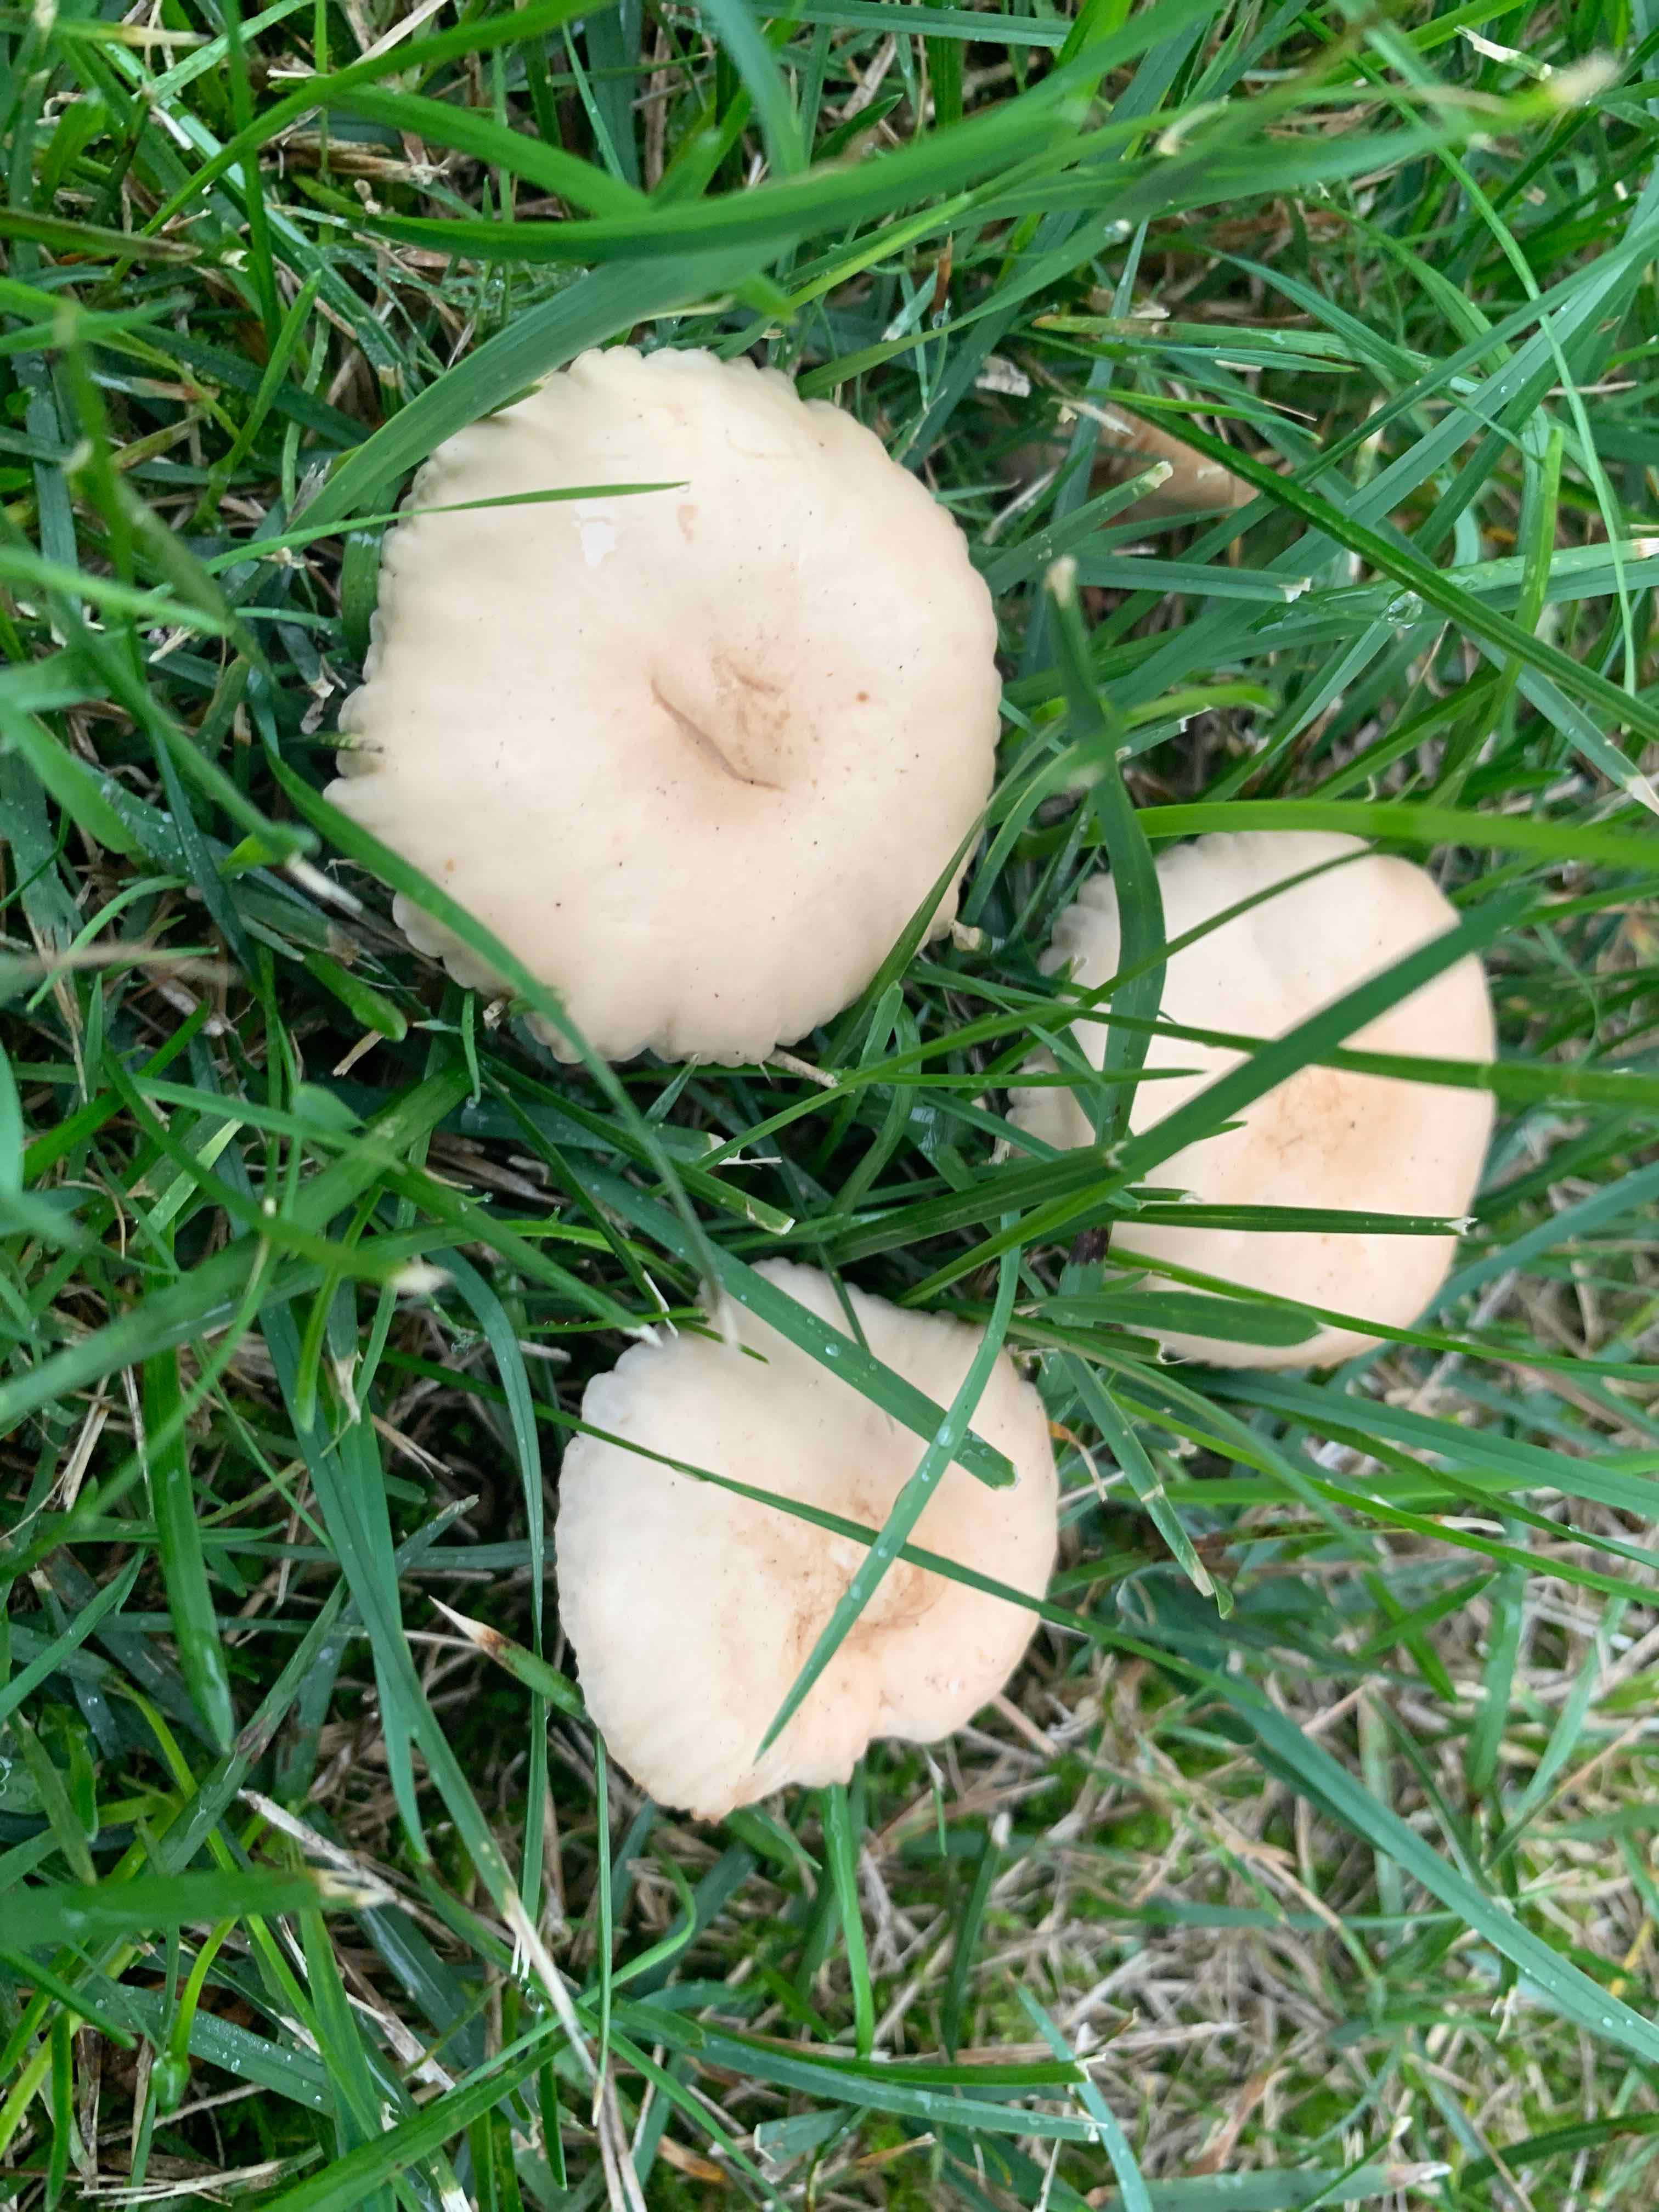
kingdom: Fungi
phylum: Basidiomycota
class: Agaricomycetes
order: Agaricales
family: Marasmiaceae
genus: Marasmius
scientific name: Marasmius oreades
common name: elledans-bruskhat
